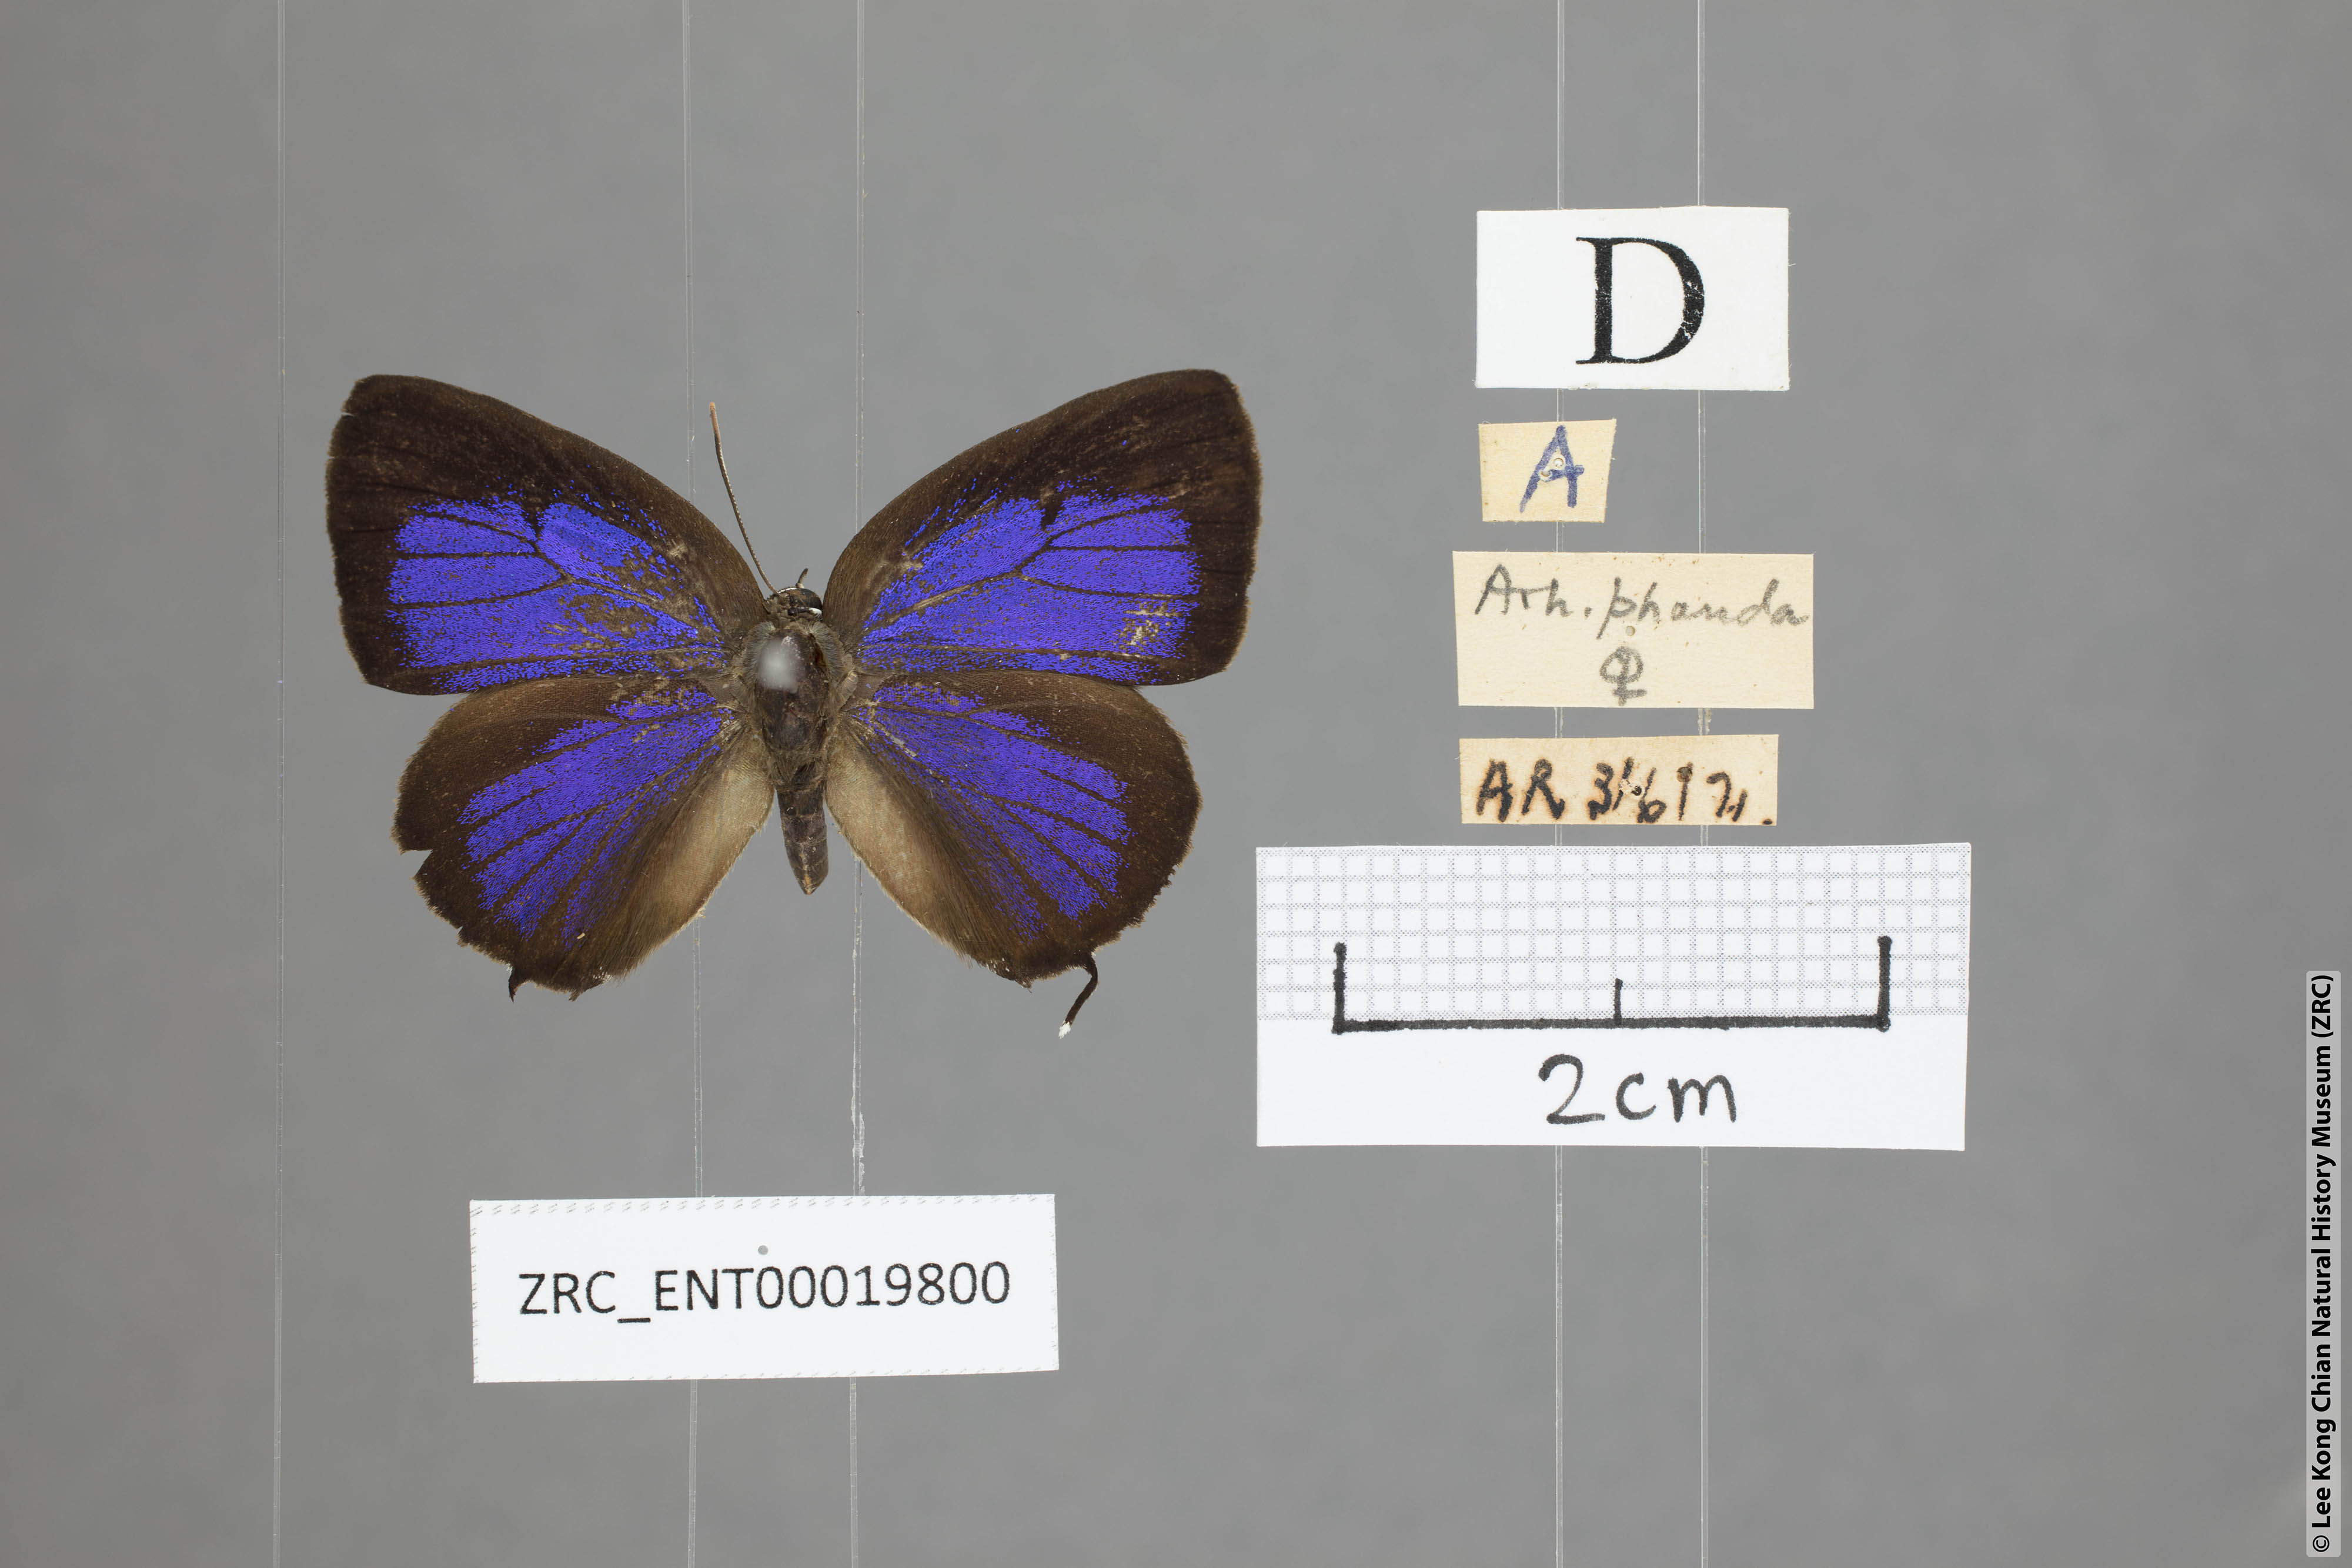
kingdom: Animalia
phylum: Arthropoda
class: Insecta
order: Lepidoptera
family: Lycaenidae
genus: Arhopala
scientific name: Arhopala phaenops
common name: Sumatran oakblue
